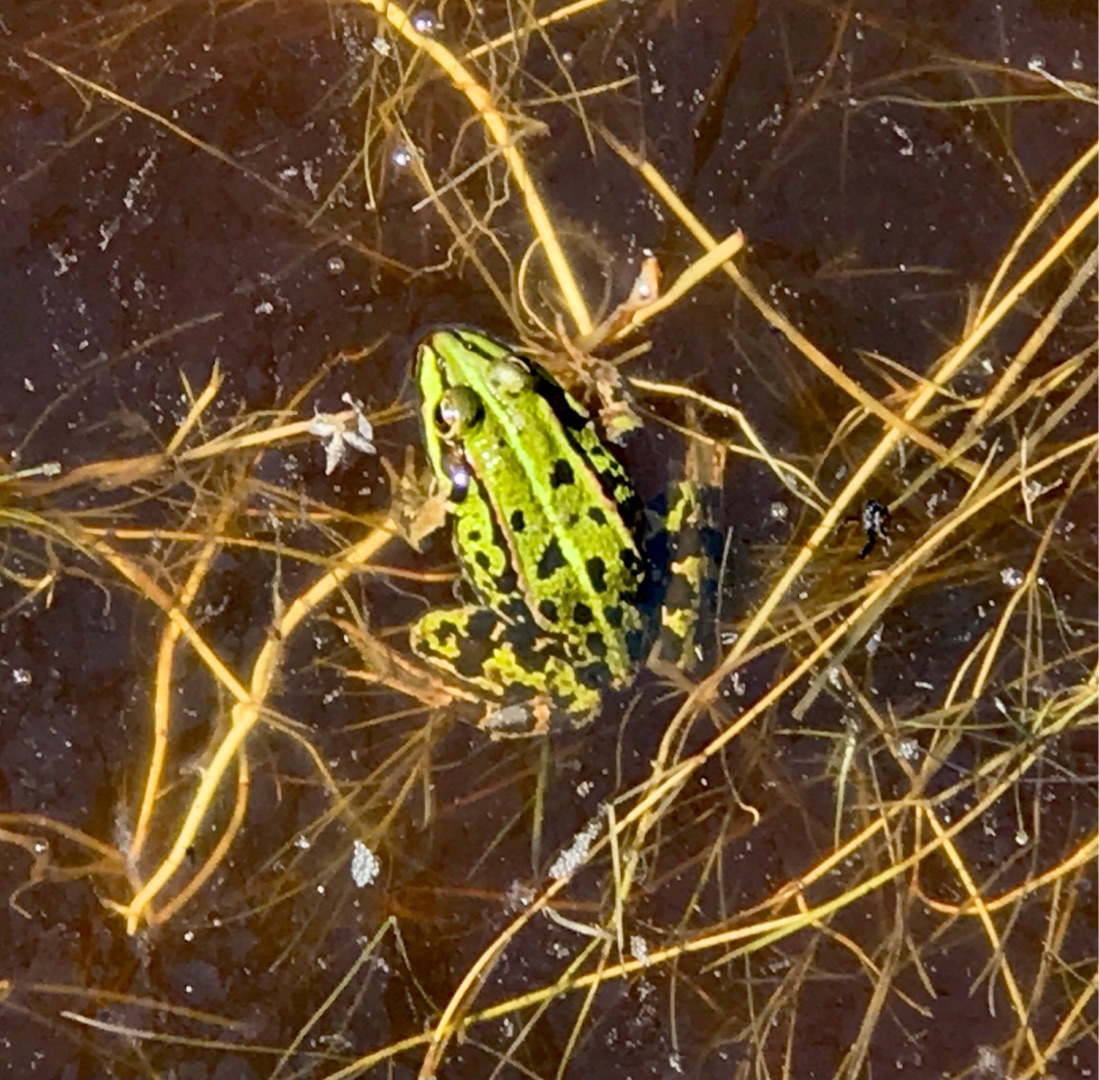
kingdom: Animalia
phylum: Chordata
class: Amphibia
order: Anura
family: Ranidae
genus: Pelophylax
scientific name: Pelophylax lessonae
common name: Grøn frø
